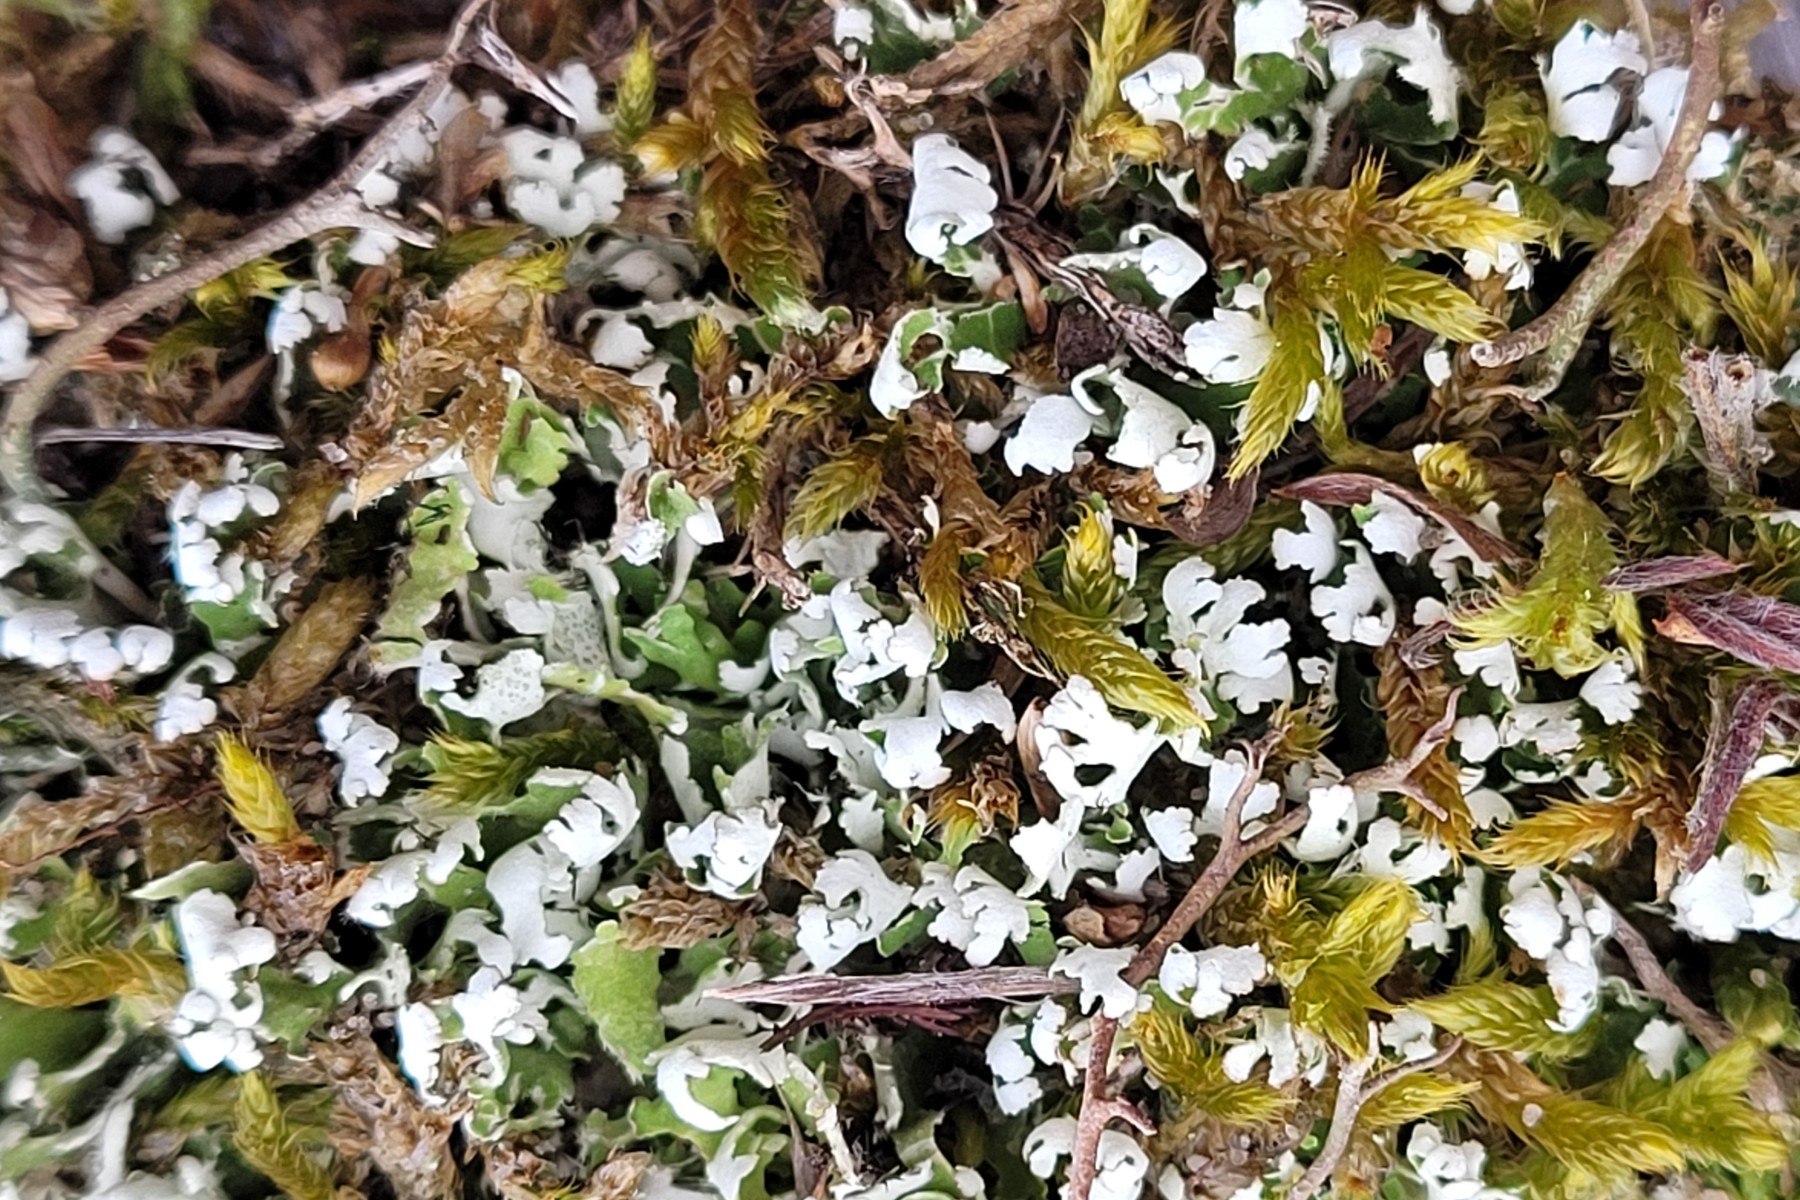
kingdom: Fungi
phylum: Ascomycota
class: Lecanoromycetes
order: Lecanorales
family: Cladoniaceae
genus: Cladonia
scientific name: Cladonia foliacea
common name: fliget bægerlav
